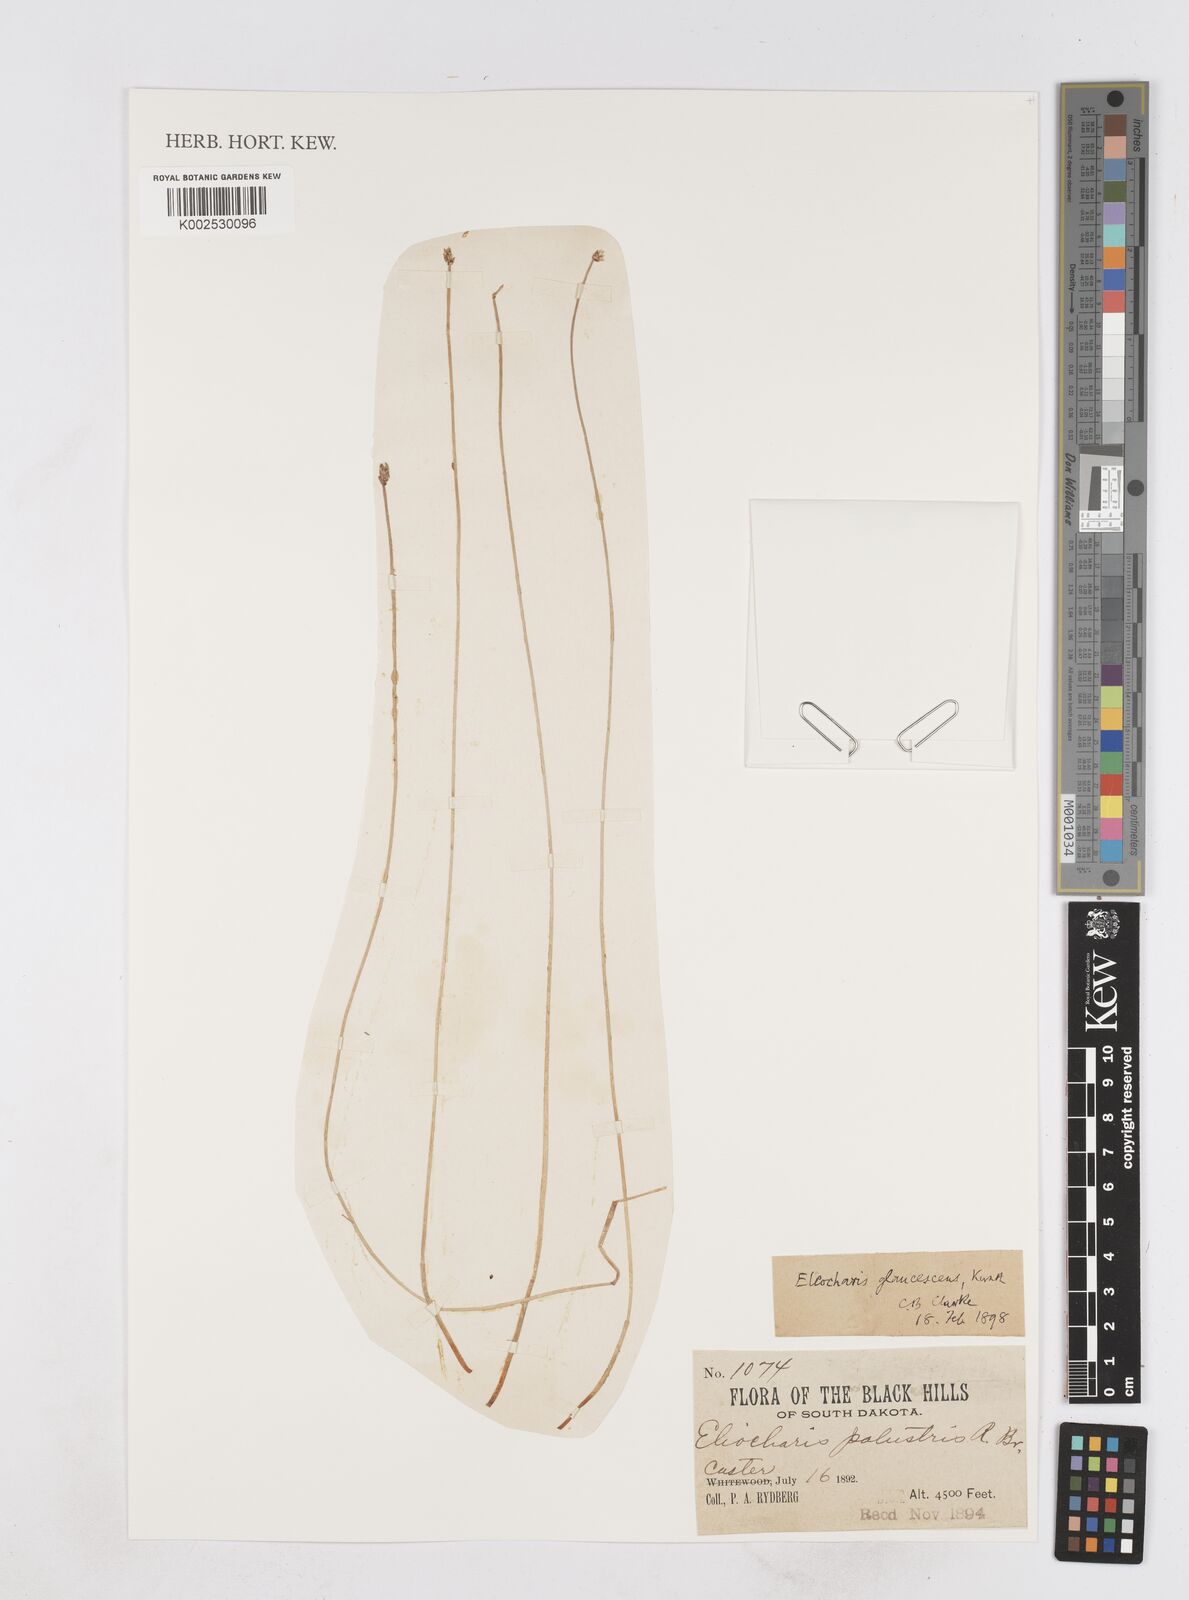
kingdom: Plantae
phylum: Tracheophyta
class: Liliopsida
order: Poales
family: Cyperaceae
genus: Eleocharis
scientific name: Eleocharis palustris
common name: Common spike-rush
